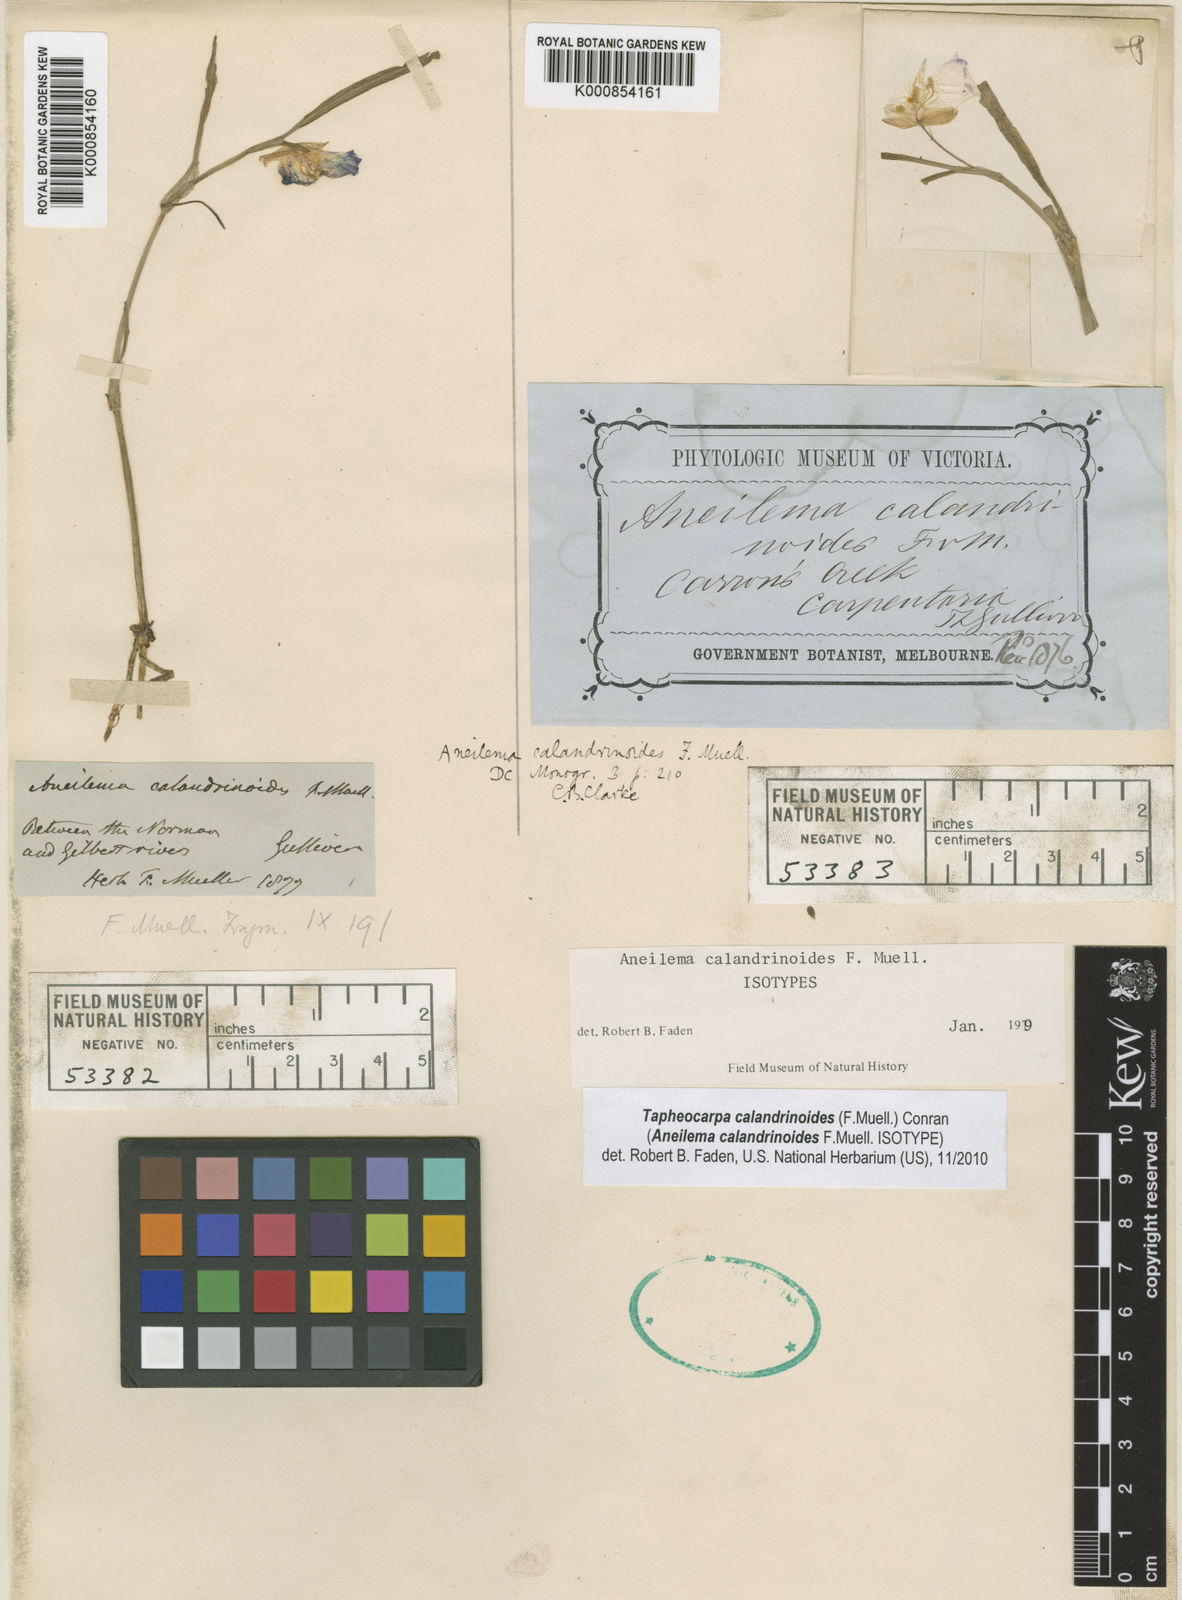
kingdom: Plantae
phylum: Tracheophyta
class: Liliopsida
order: Commelinales
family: Commelinaceae
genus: Tapheocarpa
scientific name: Tapheocarpa calandrinioides
